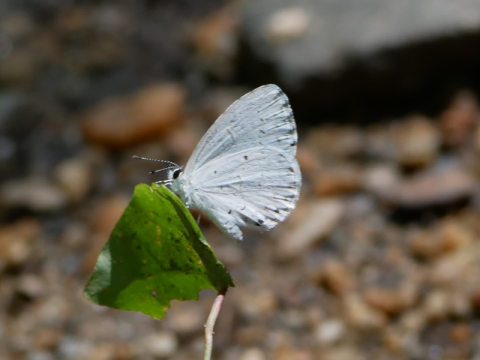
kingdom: Animalia
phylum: Arthropoda
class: Insecta
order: Lepidoptera
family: Lycaenidae
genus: Cyaniris
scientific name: Cyaniris neglecta
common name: Summer Azure
